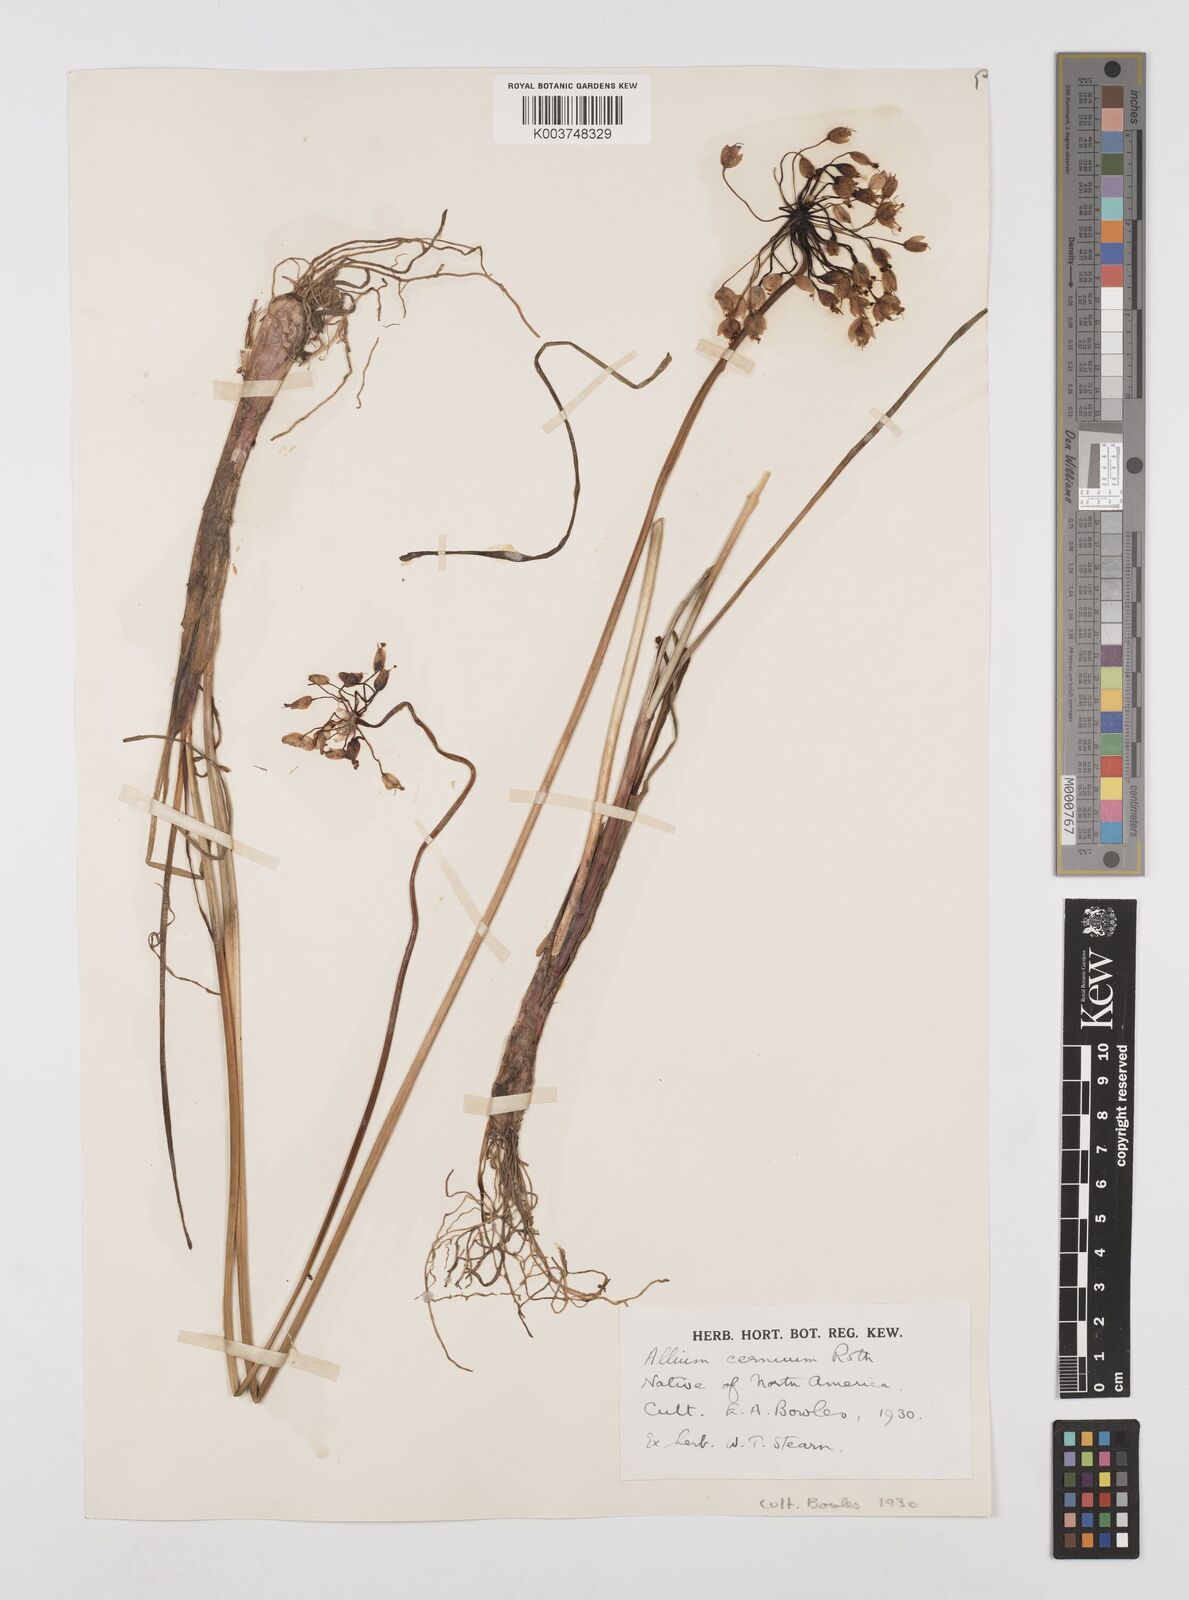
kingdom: Plantae
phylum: Tracheophyta
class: Liliopsida
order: Asparagales
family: Amaryllidaceae
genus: Allium
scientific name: Allium cernuum
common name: Nodding onion
